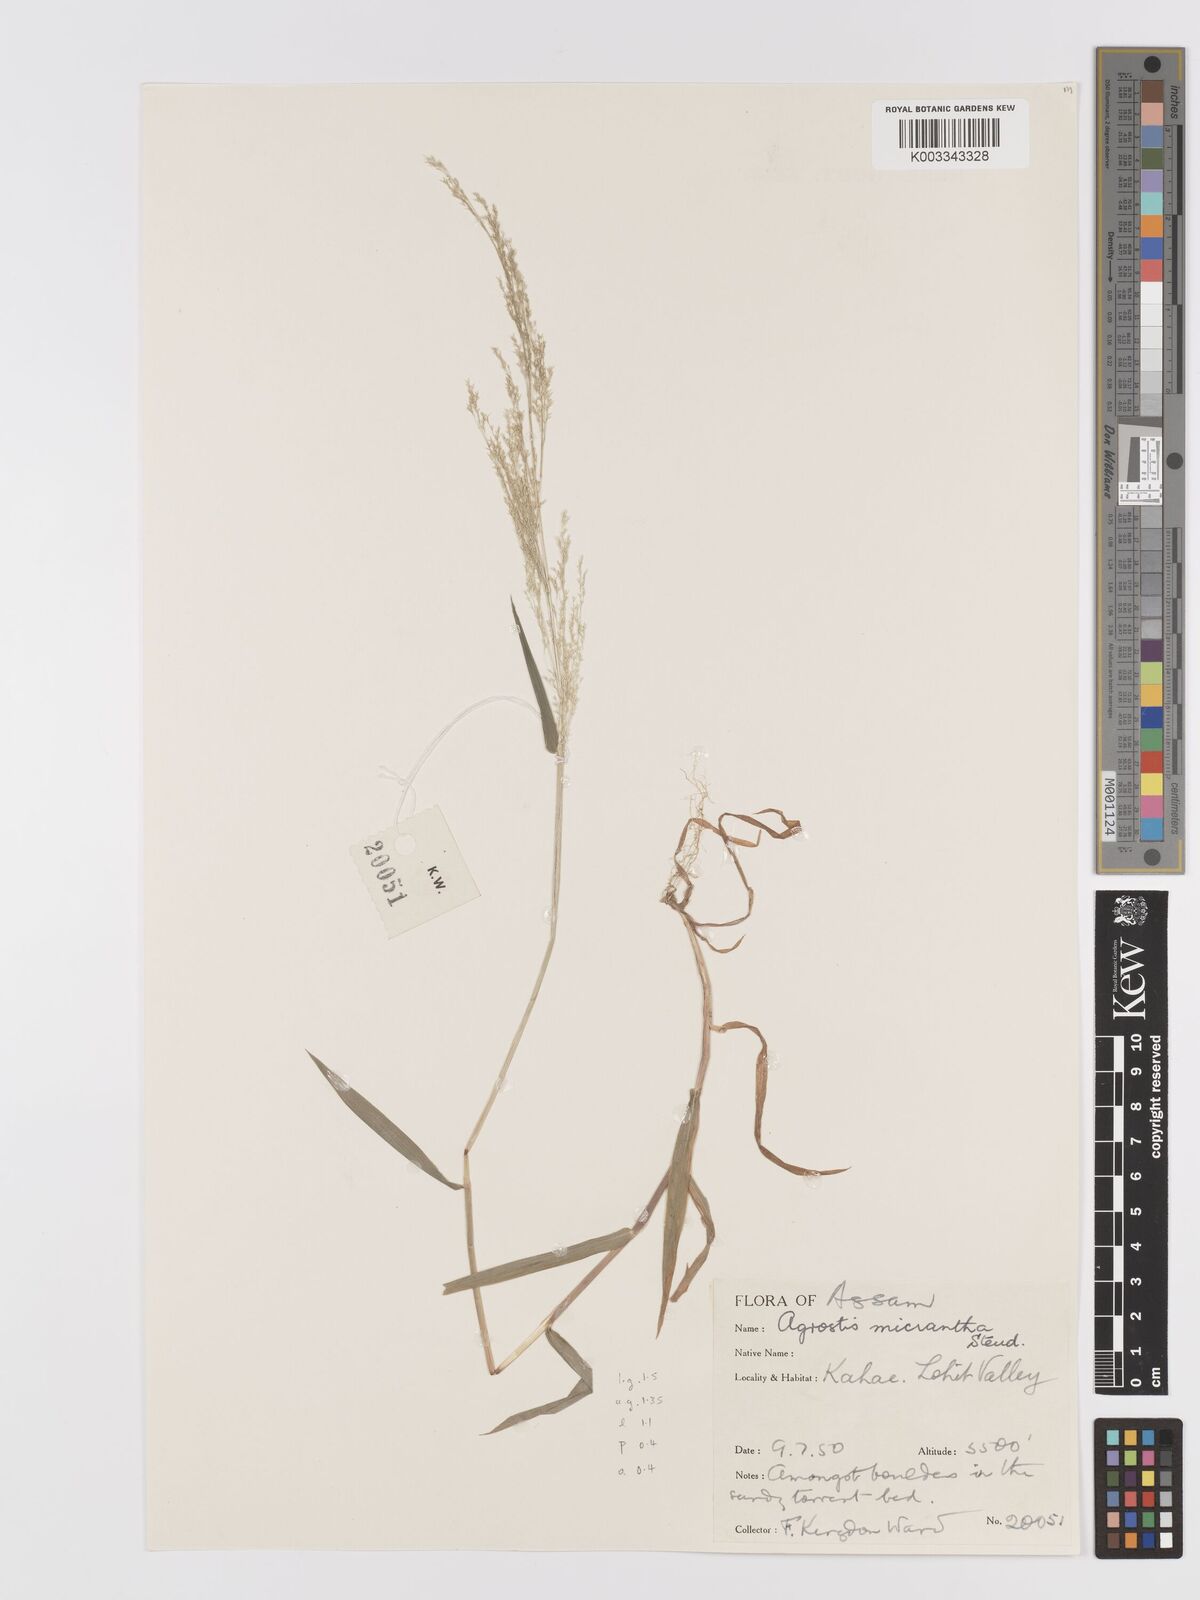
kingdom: Plantae
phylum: Tracheophyta
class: Liliopsida
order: Poales
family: Poaceae
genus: Agrostis
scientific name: Agrostis micrantha
